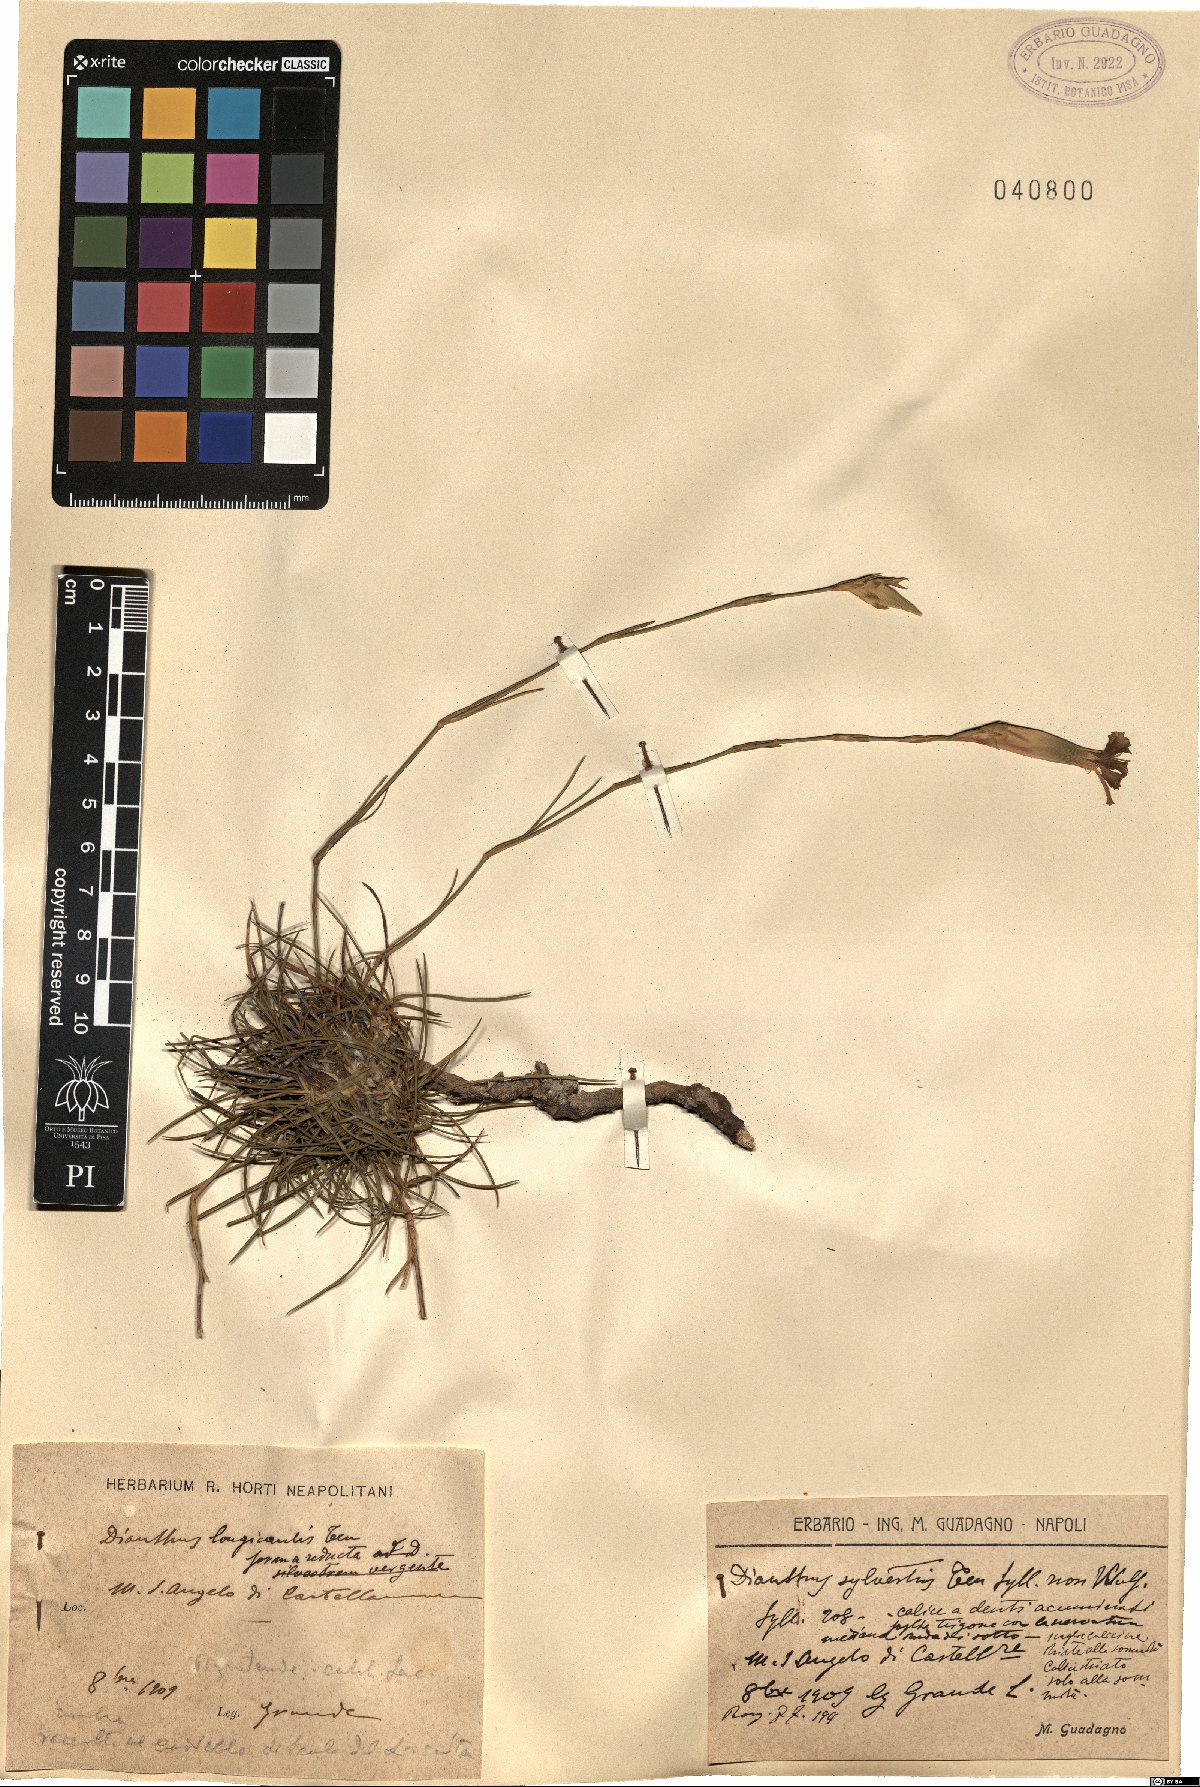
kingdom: Plantae
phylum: Tracheophyta
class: Magnoliopsida
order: Caryophyllales
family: Caryophyllaceae
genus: Dianthus
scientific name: Dianthus virgineus
